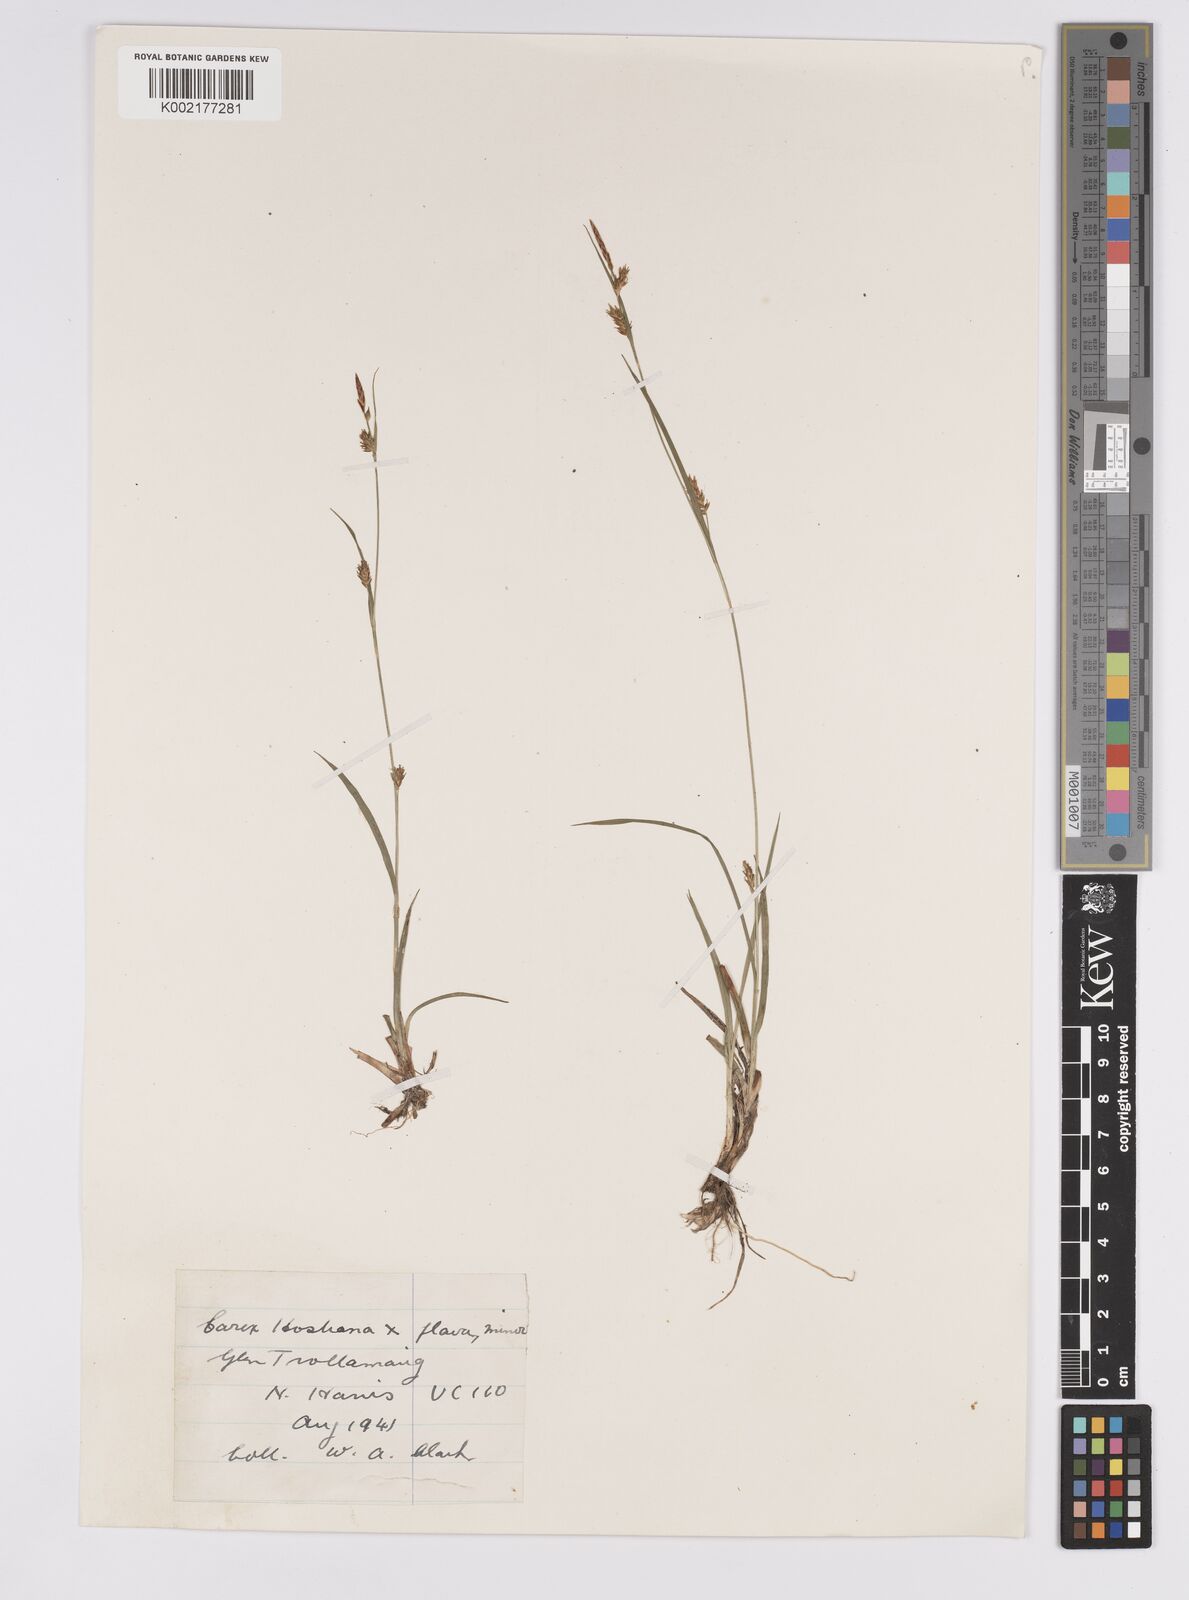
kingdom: Plantae
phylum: Tracheophyta
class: Liliopsida
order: Poales
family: Cyperaceae
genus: Carex
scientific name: Carex hostiana
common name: Tawny sedge
